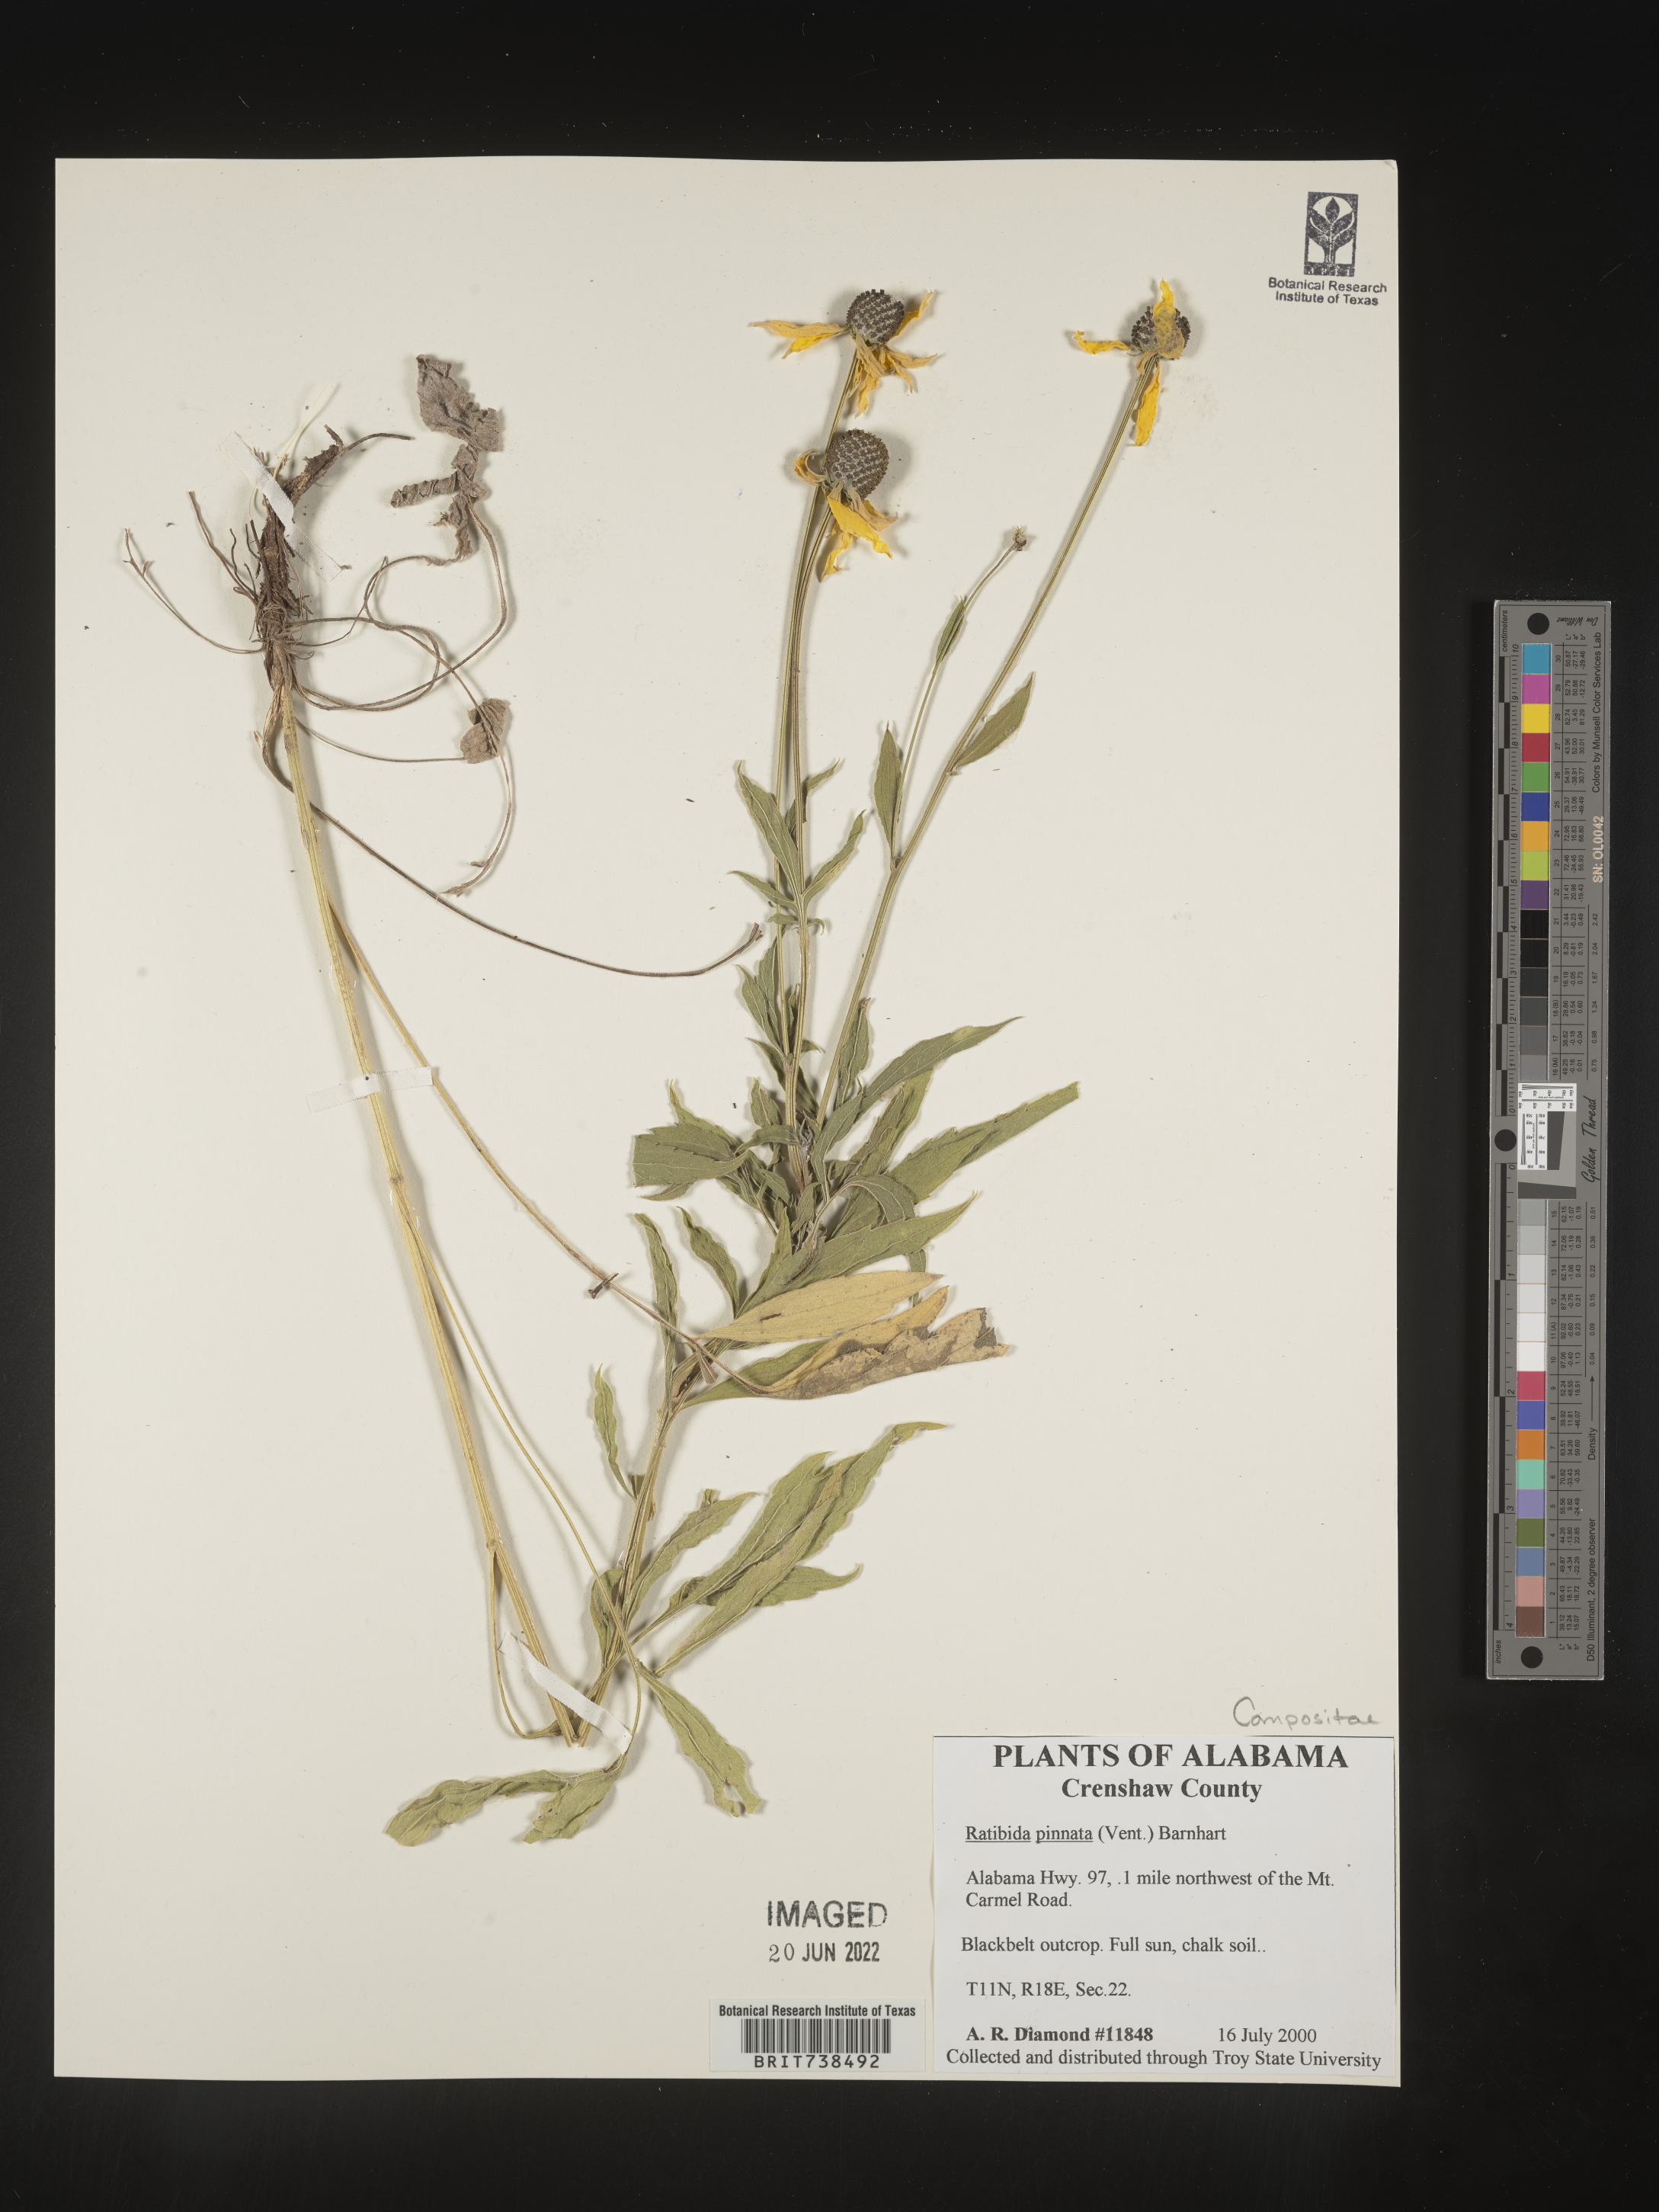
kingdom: Plantae
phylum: Tracheophyta
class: Magnoliopsida
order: Asterales
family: Asteraceae
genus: Ratibida
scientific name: Ratibida pinnata
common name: Drooping prairie-coneflower
